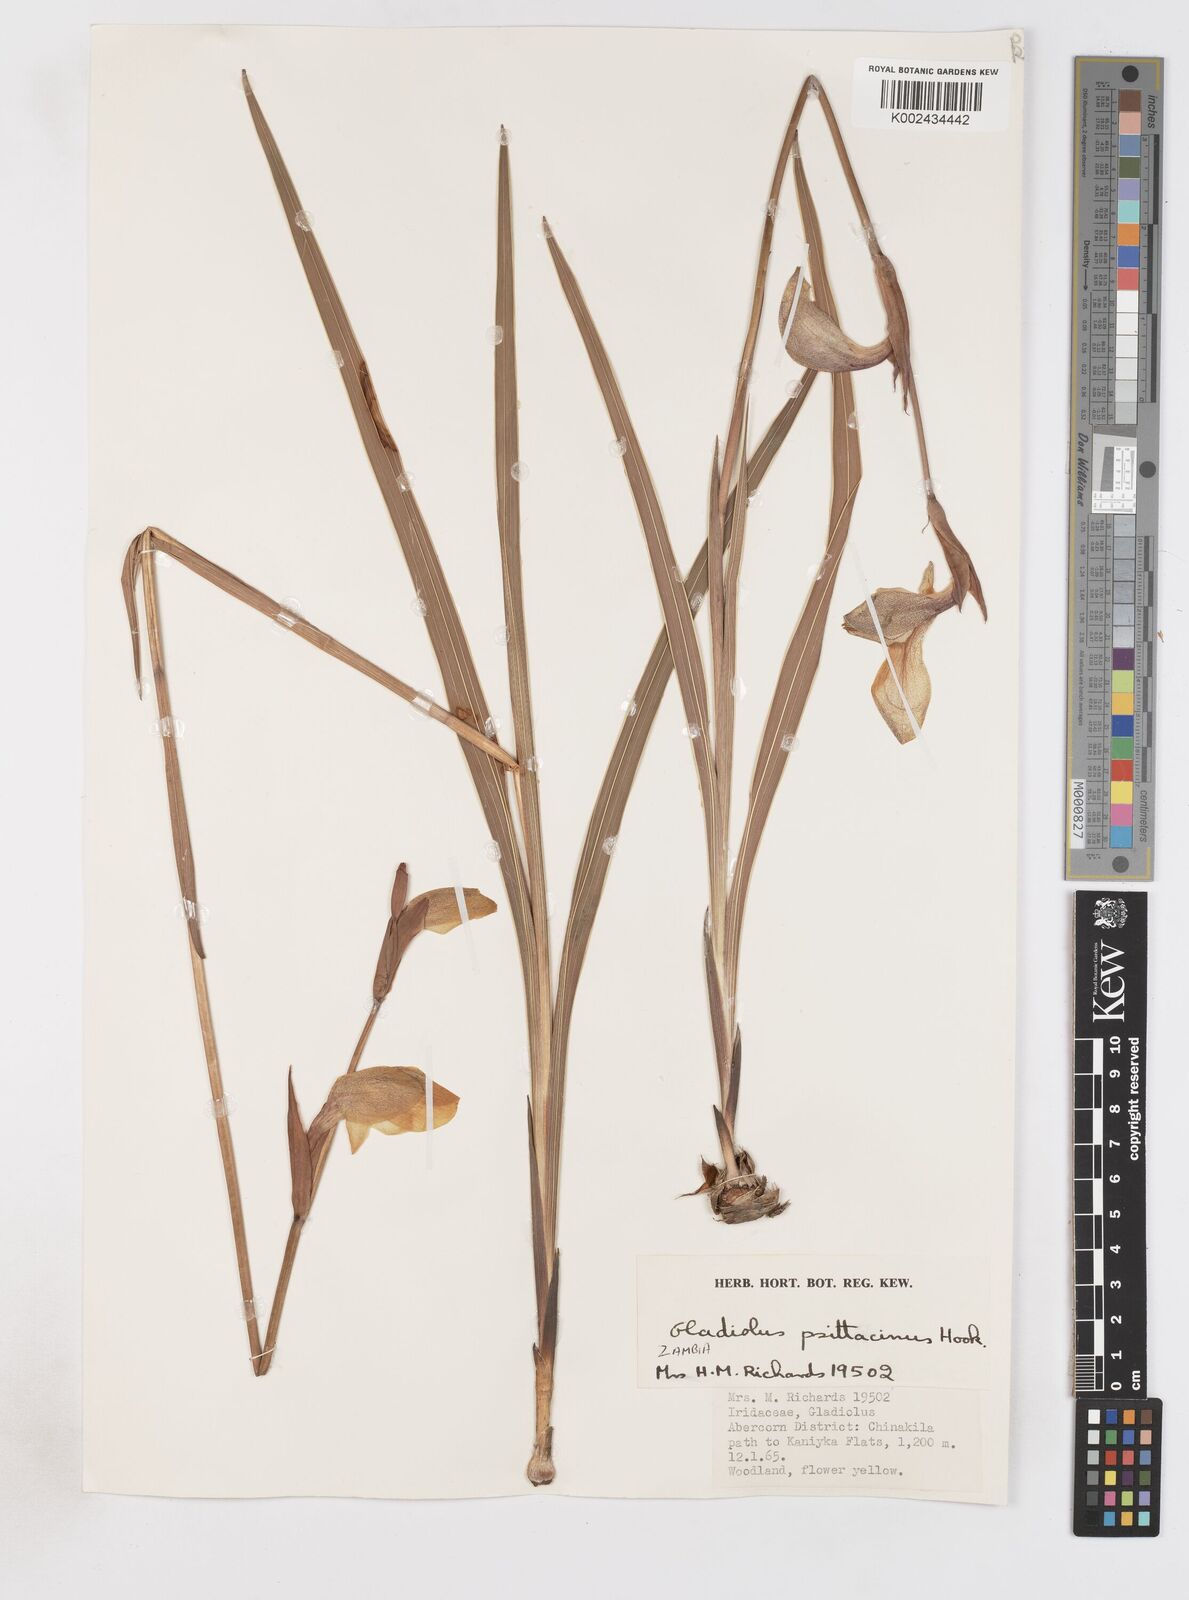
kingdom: Plantae
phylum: Tracheophyta
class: Liliopsida
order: Asparagales
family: Iridaceae
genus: Gladiolus
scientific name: Gladiolus dalenii
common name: Cornflag
